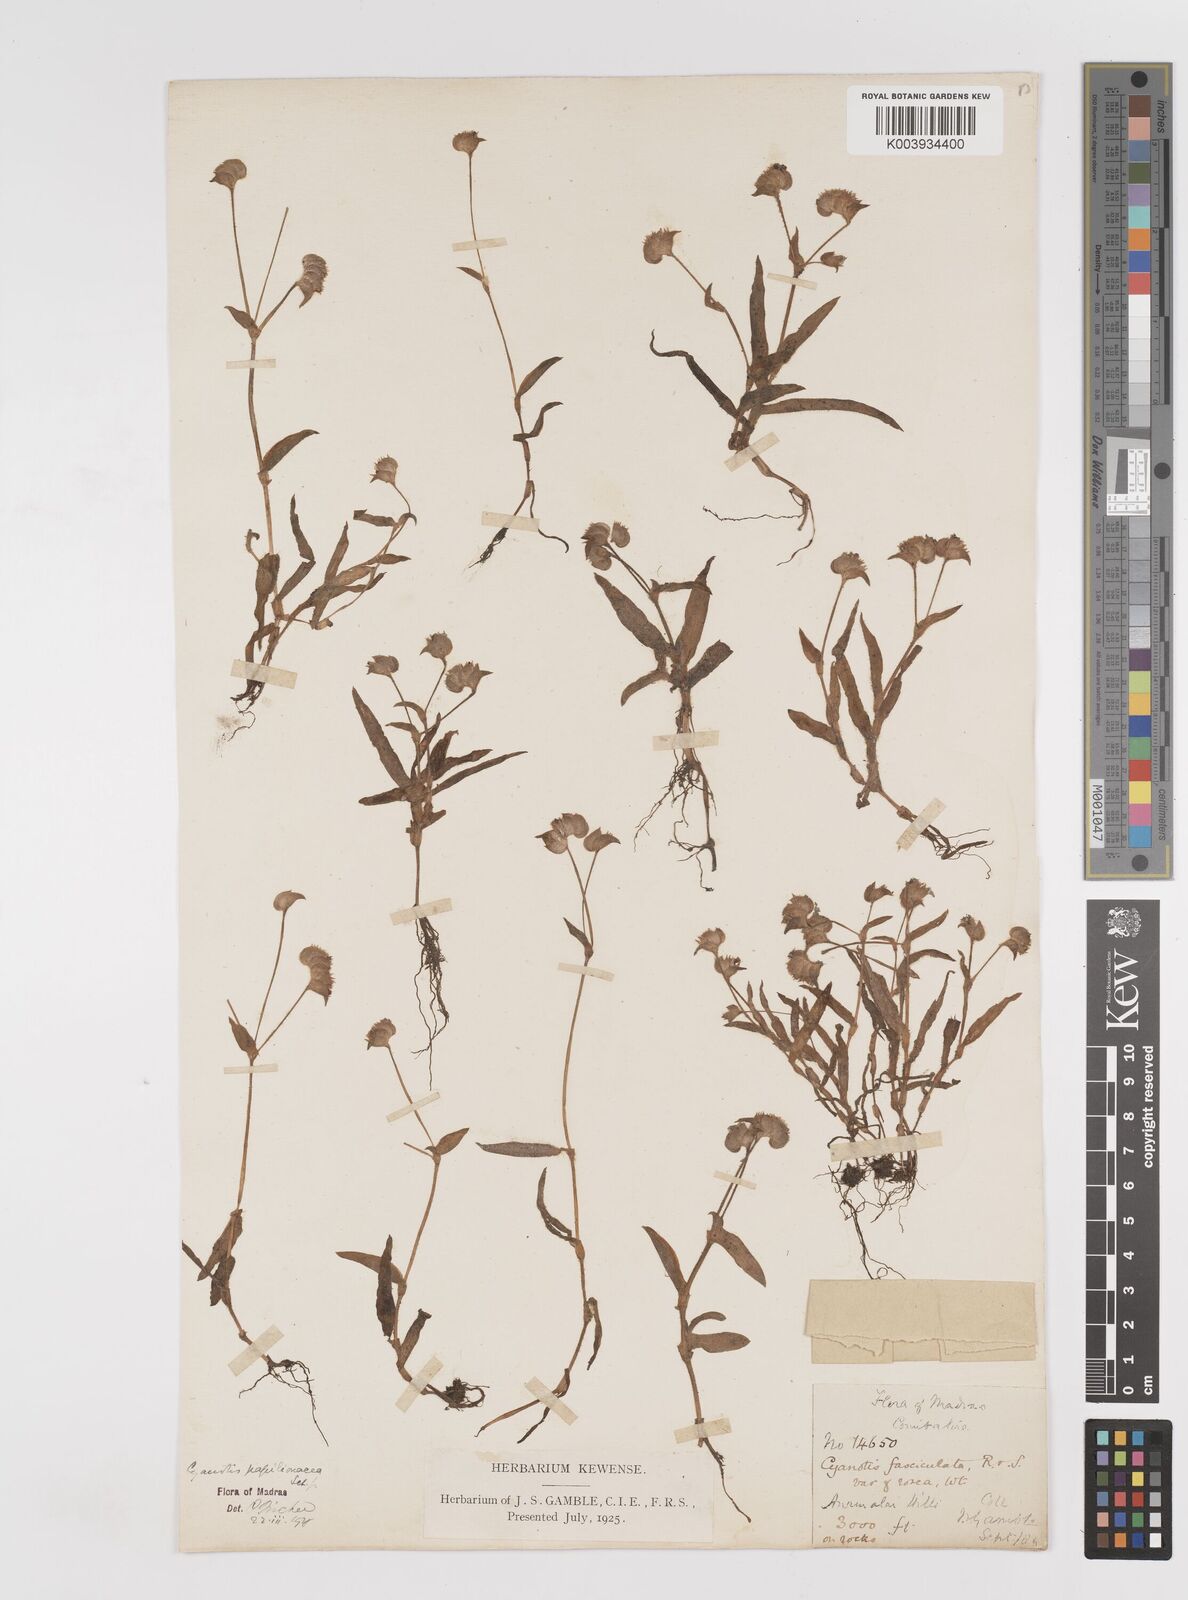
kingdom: Plantae
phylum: Tracheophyta
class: Liliopsida
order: Commelinales
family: Commelinaceae
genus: Cyanotis
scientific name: Cyanotis cristata
